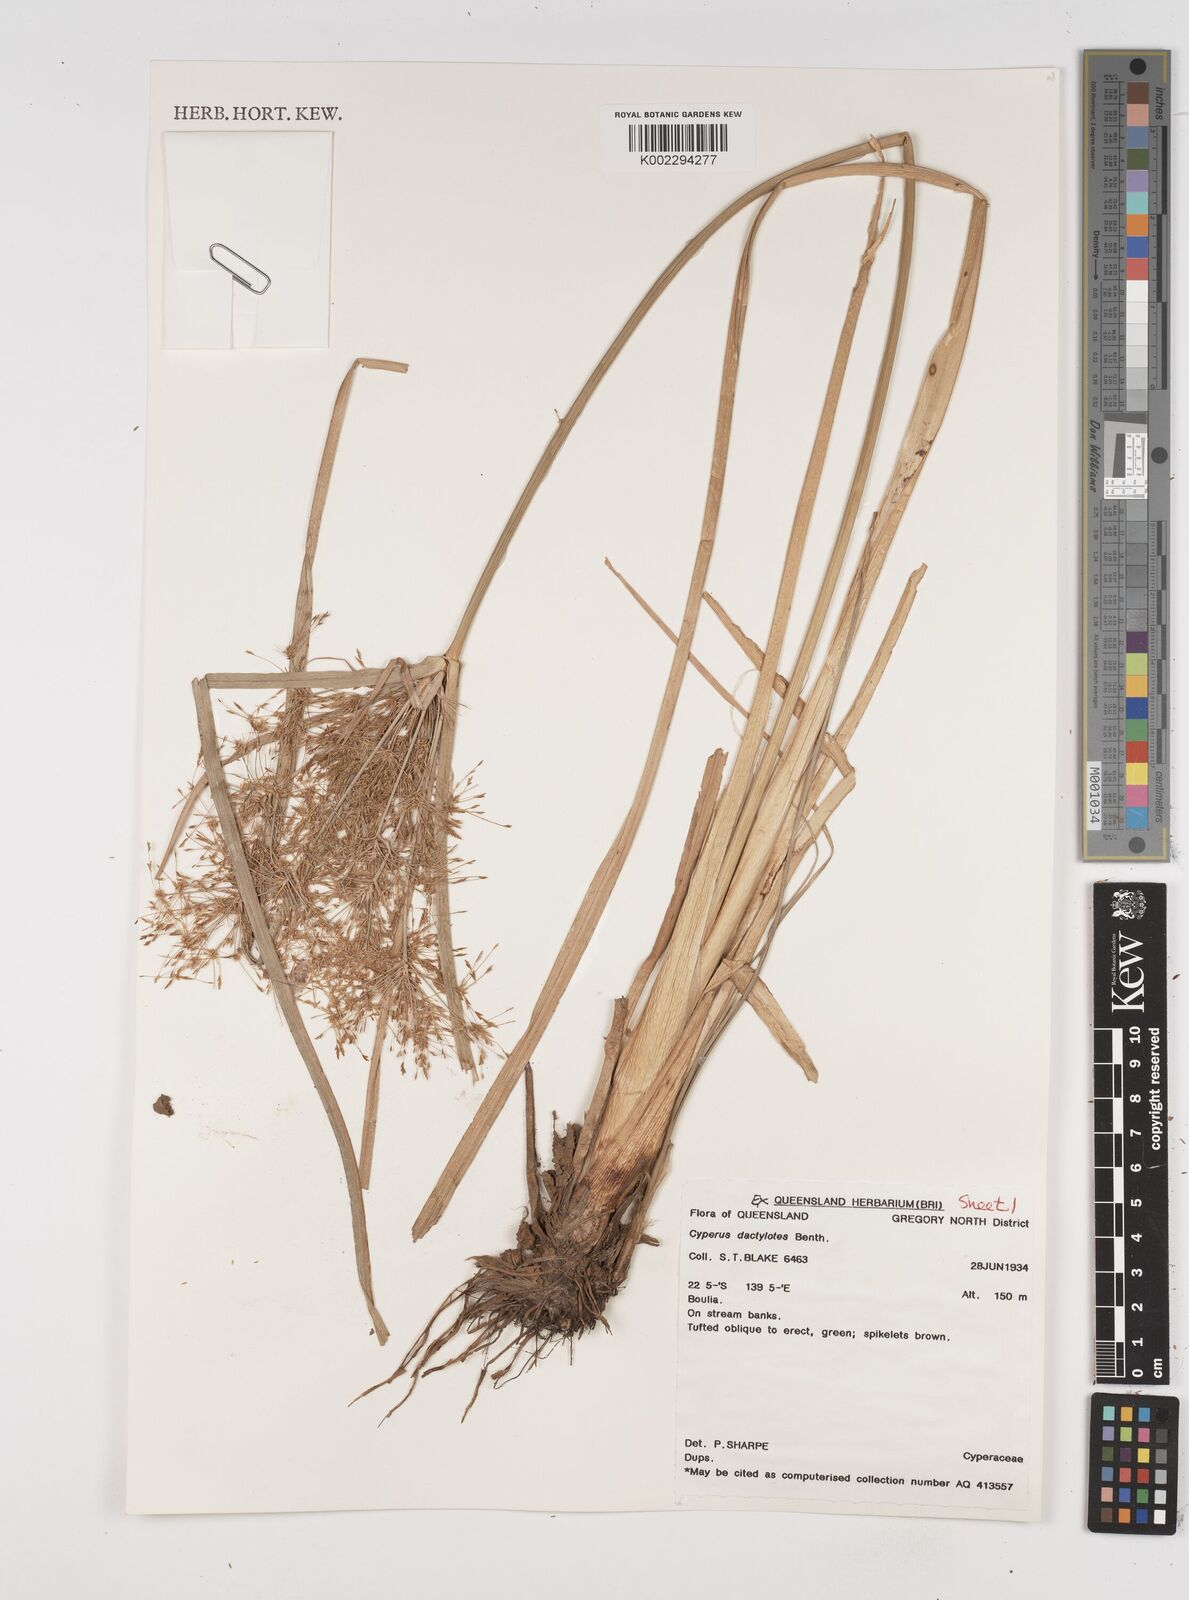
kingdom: Plantae
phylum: Tracheophyta
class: Liliopsida
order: Poales
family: Cyperaceae
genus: Cyperus
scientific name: Cyperus dactylotes
